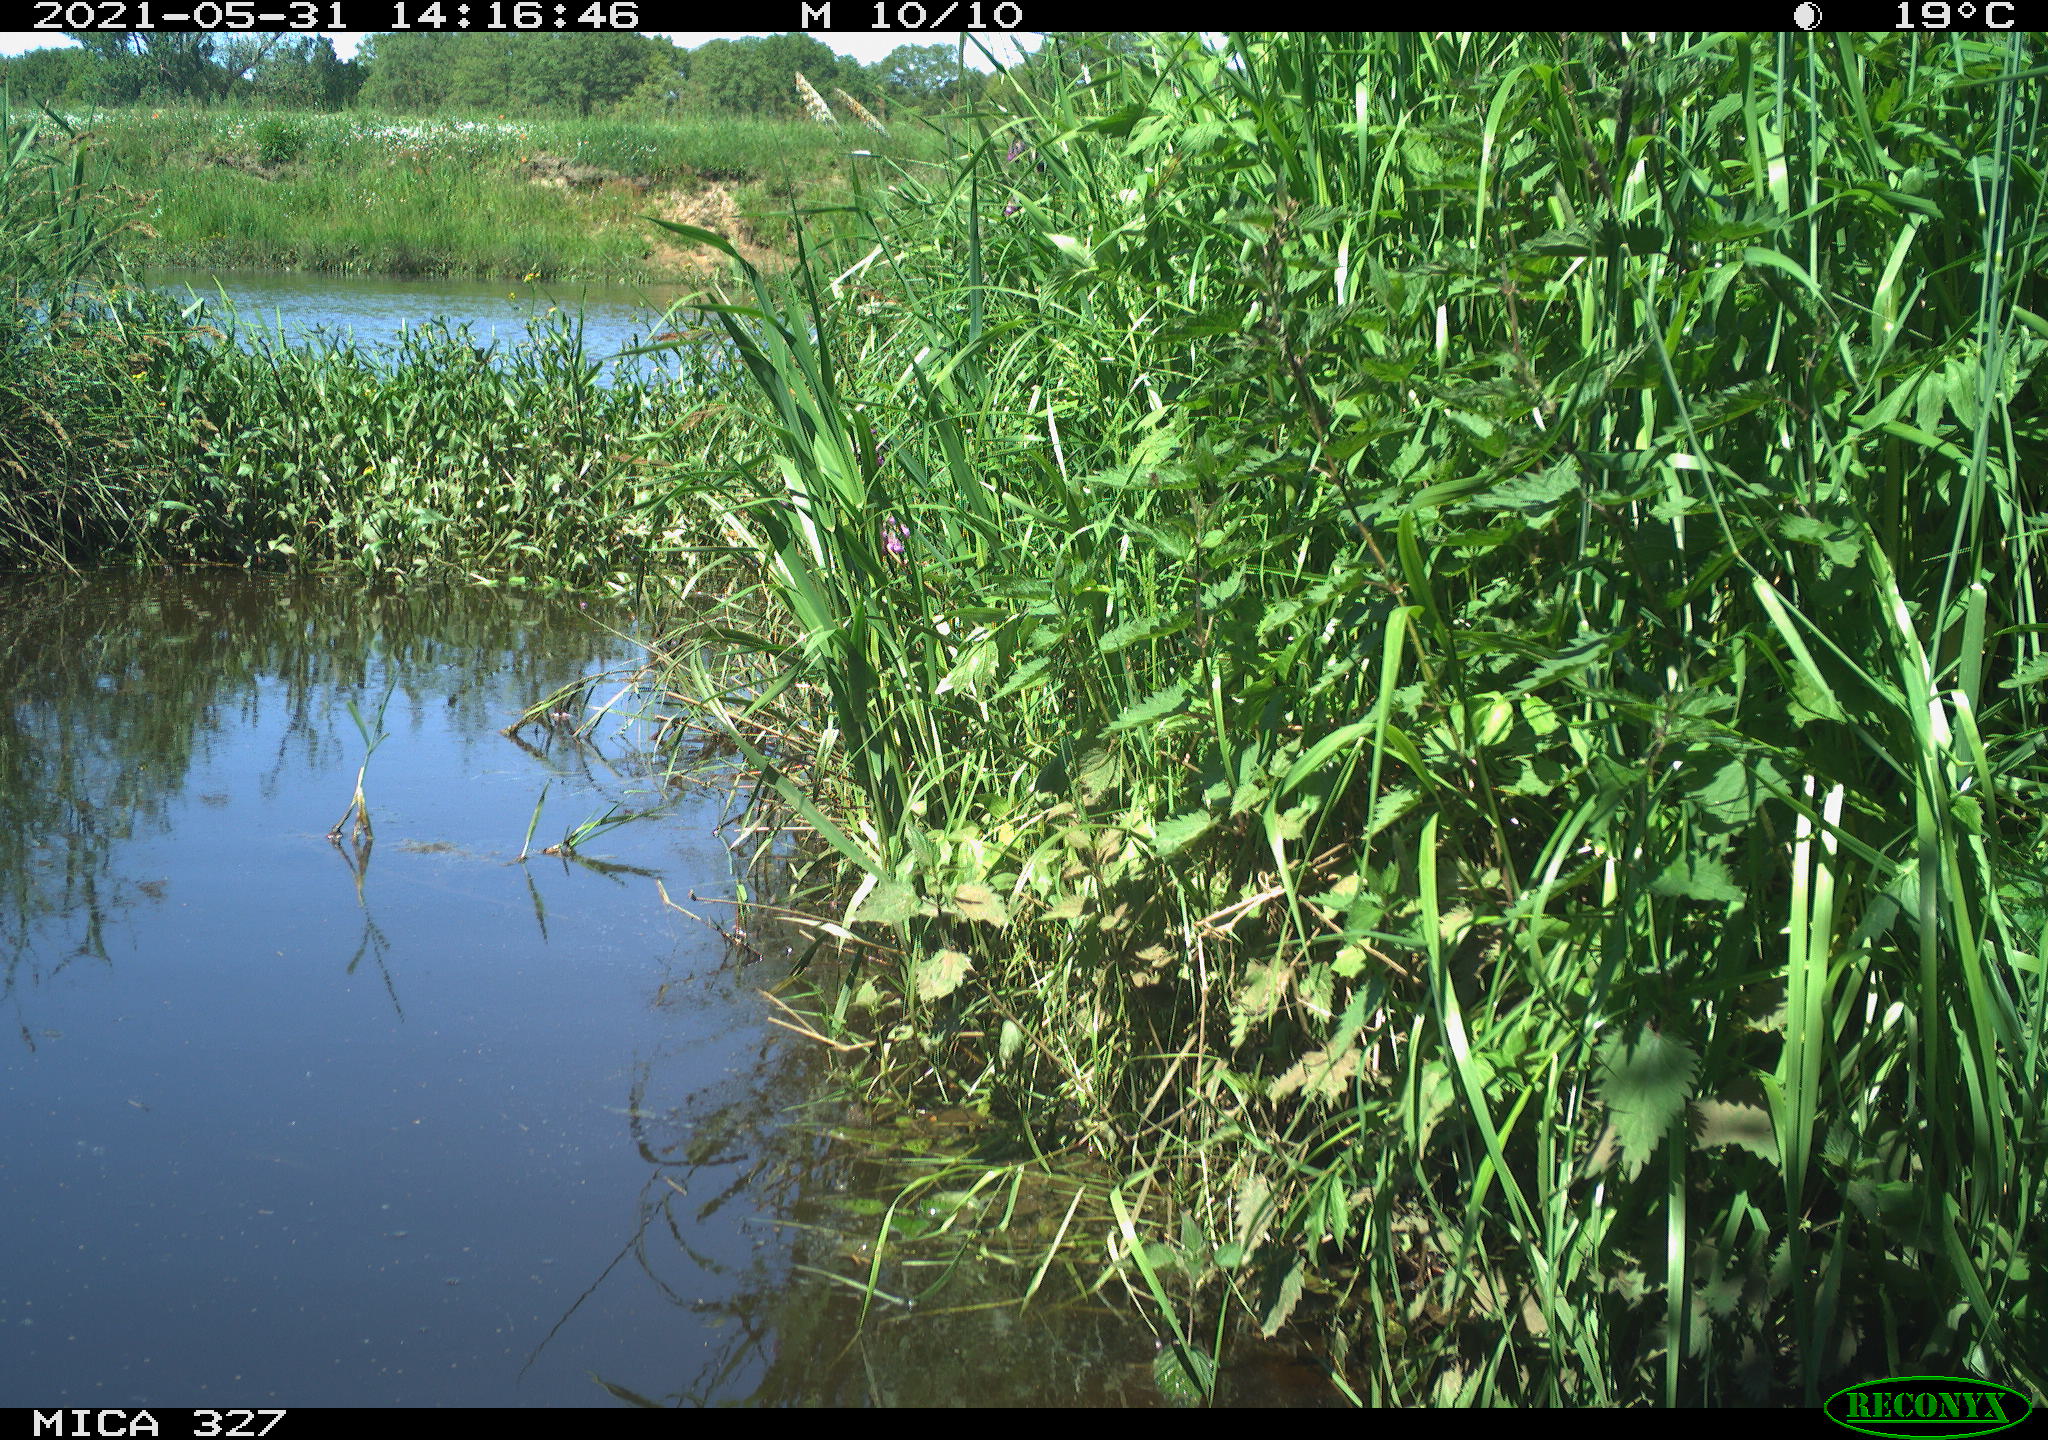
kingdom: Animalia
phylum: Chordata
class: Aves
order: Gruiformes
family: Rallidae
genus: Fulica
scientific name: Fulica atra
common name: Eurasian coot
